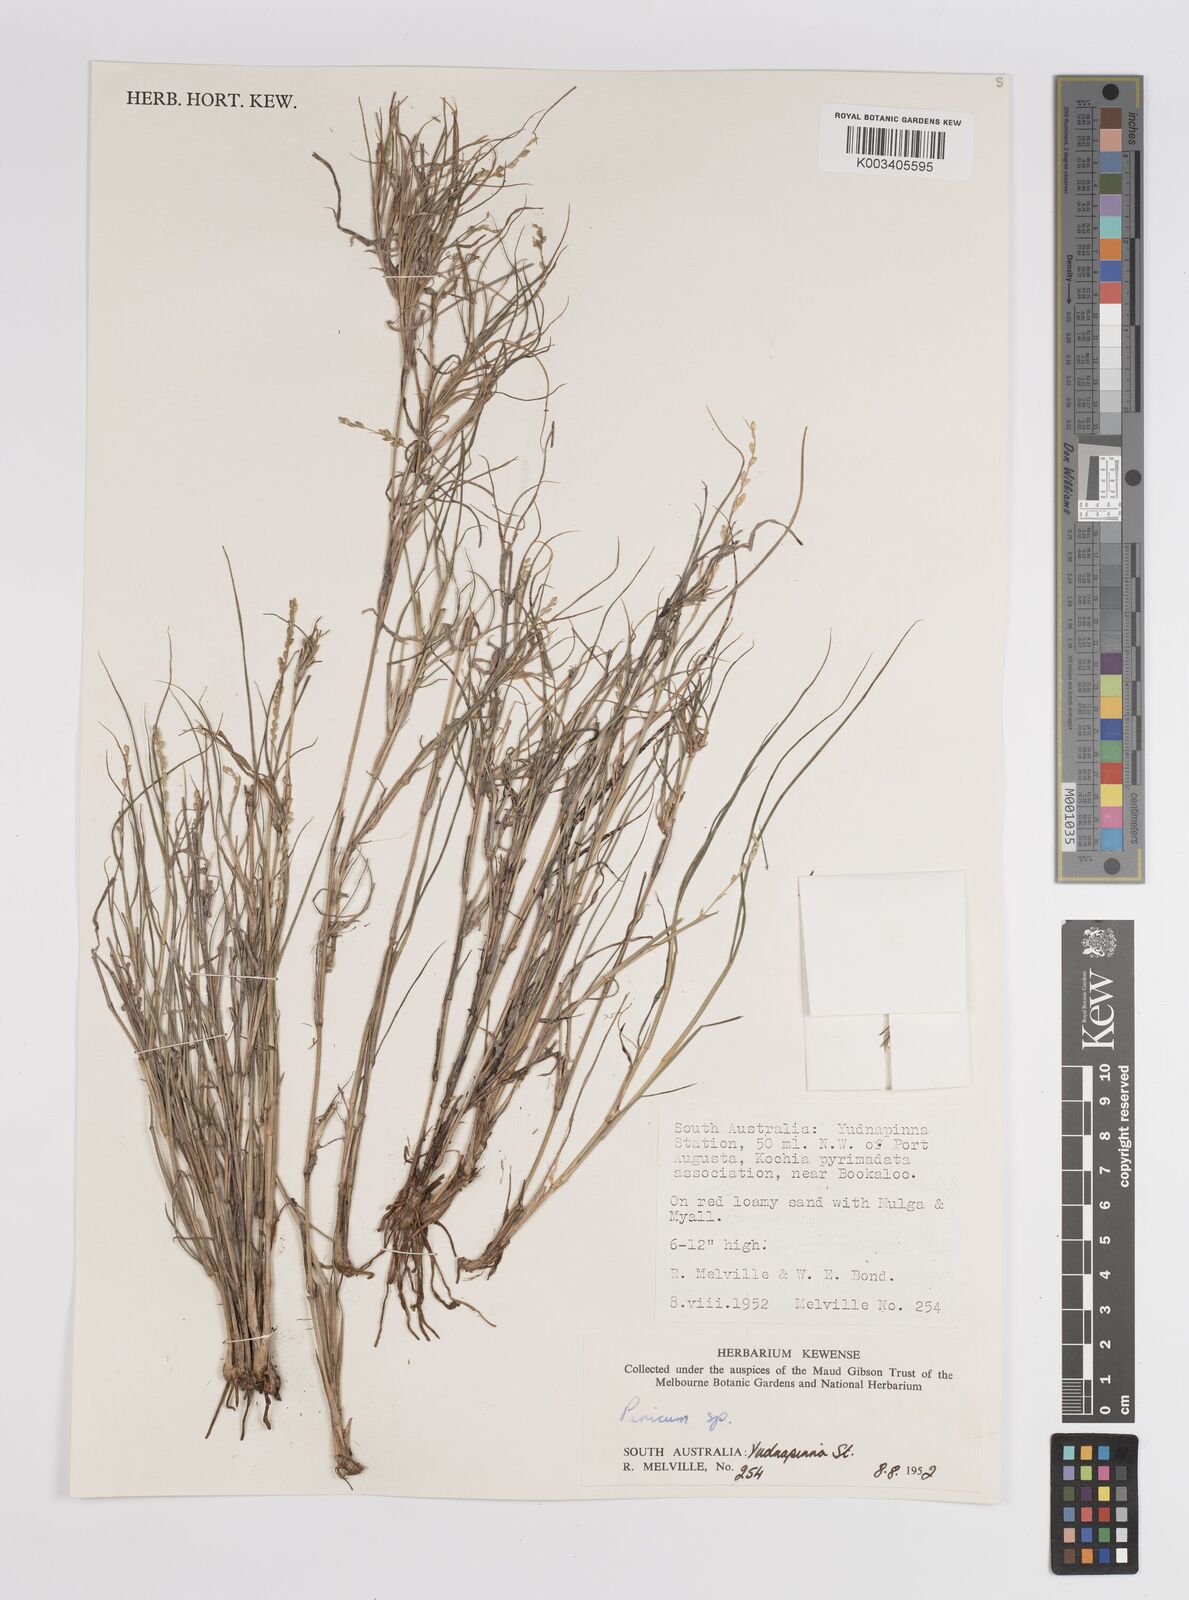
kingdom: Plantae
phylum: Tracheophyta
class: Liliopsida
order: Poales
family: Poaceae
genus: Panicum
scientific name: Panicum
